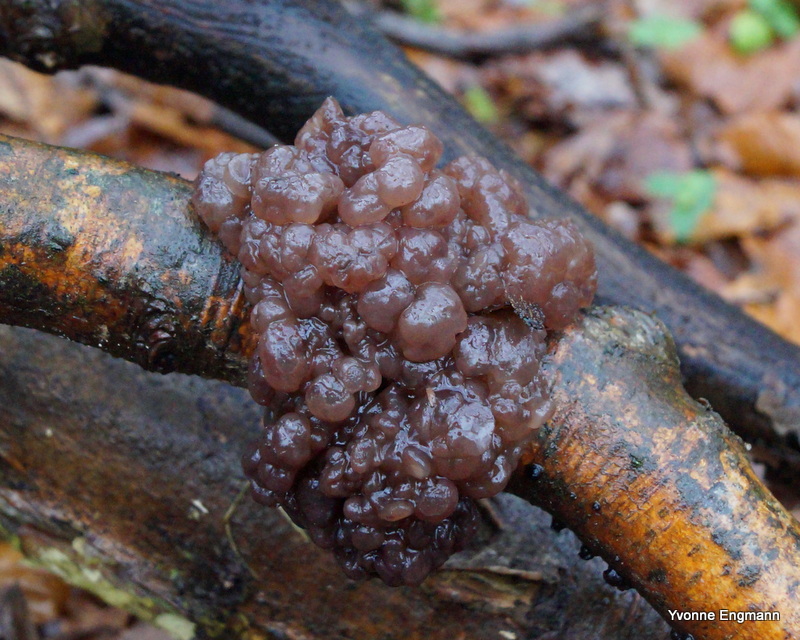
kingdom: Fungi
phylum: Ascomycota
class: Leotiomycetes
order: Helotiales
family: Gelatinodiscaceae
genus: Ascotremella
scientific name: Ascotremella faginea
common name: hjerne-bævreskive
